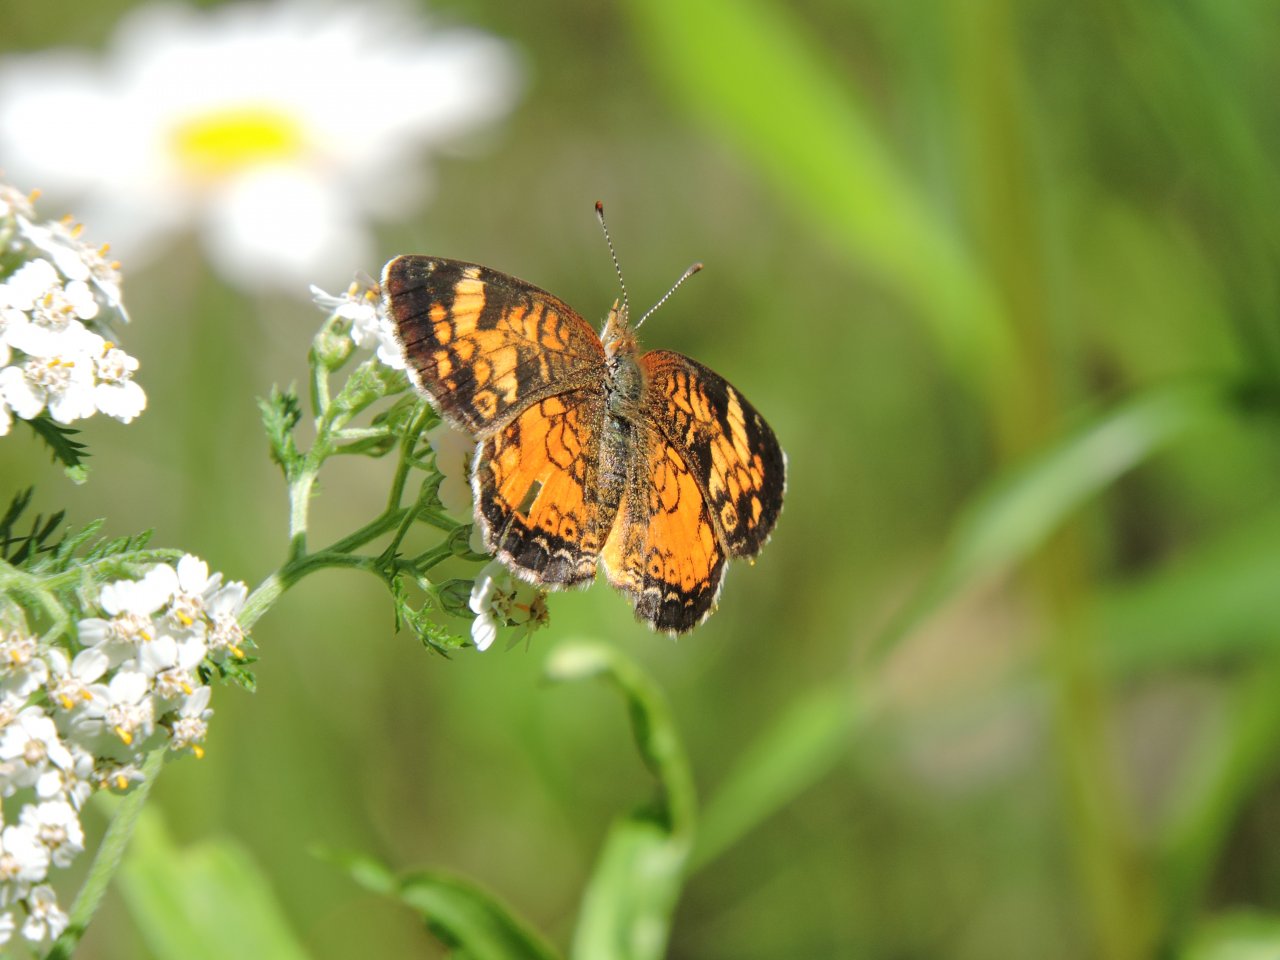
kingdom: Animalia
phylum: Arthropoda
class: Insecta
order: Lepidoptera
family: Nymphalidae
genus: Phyciodes
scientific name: Phyciodes tharos
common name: Northern Crescent
